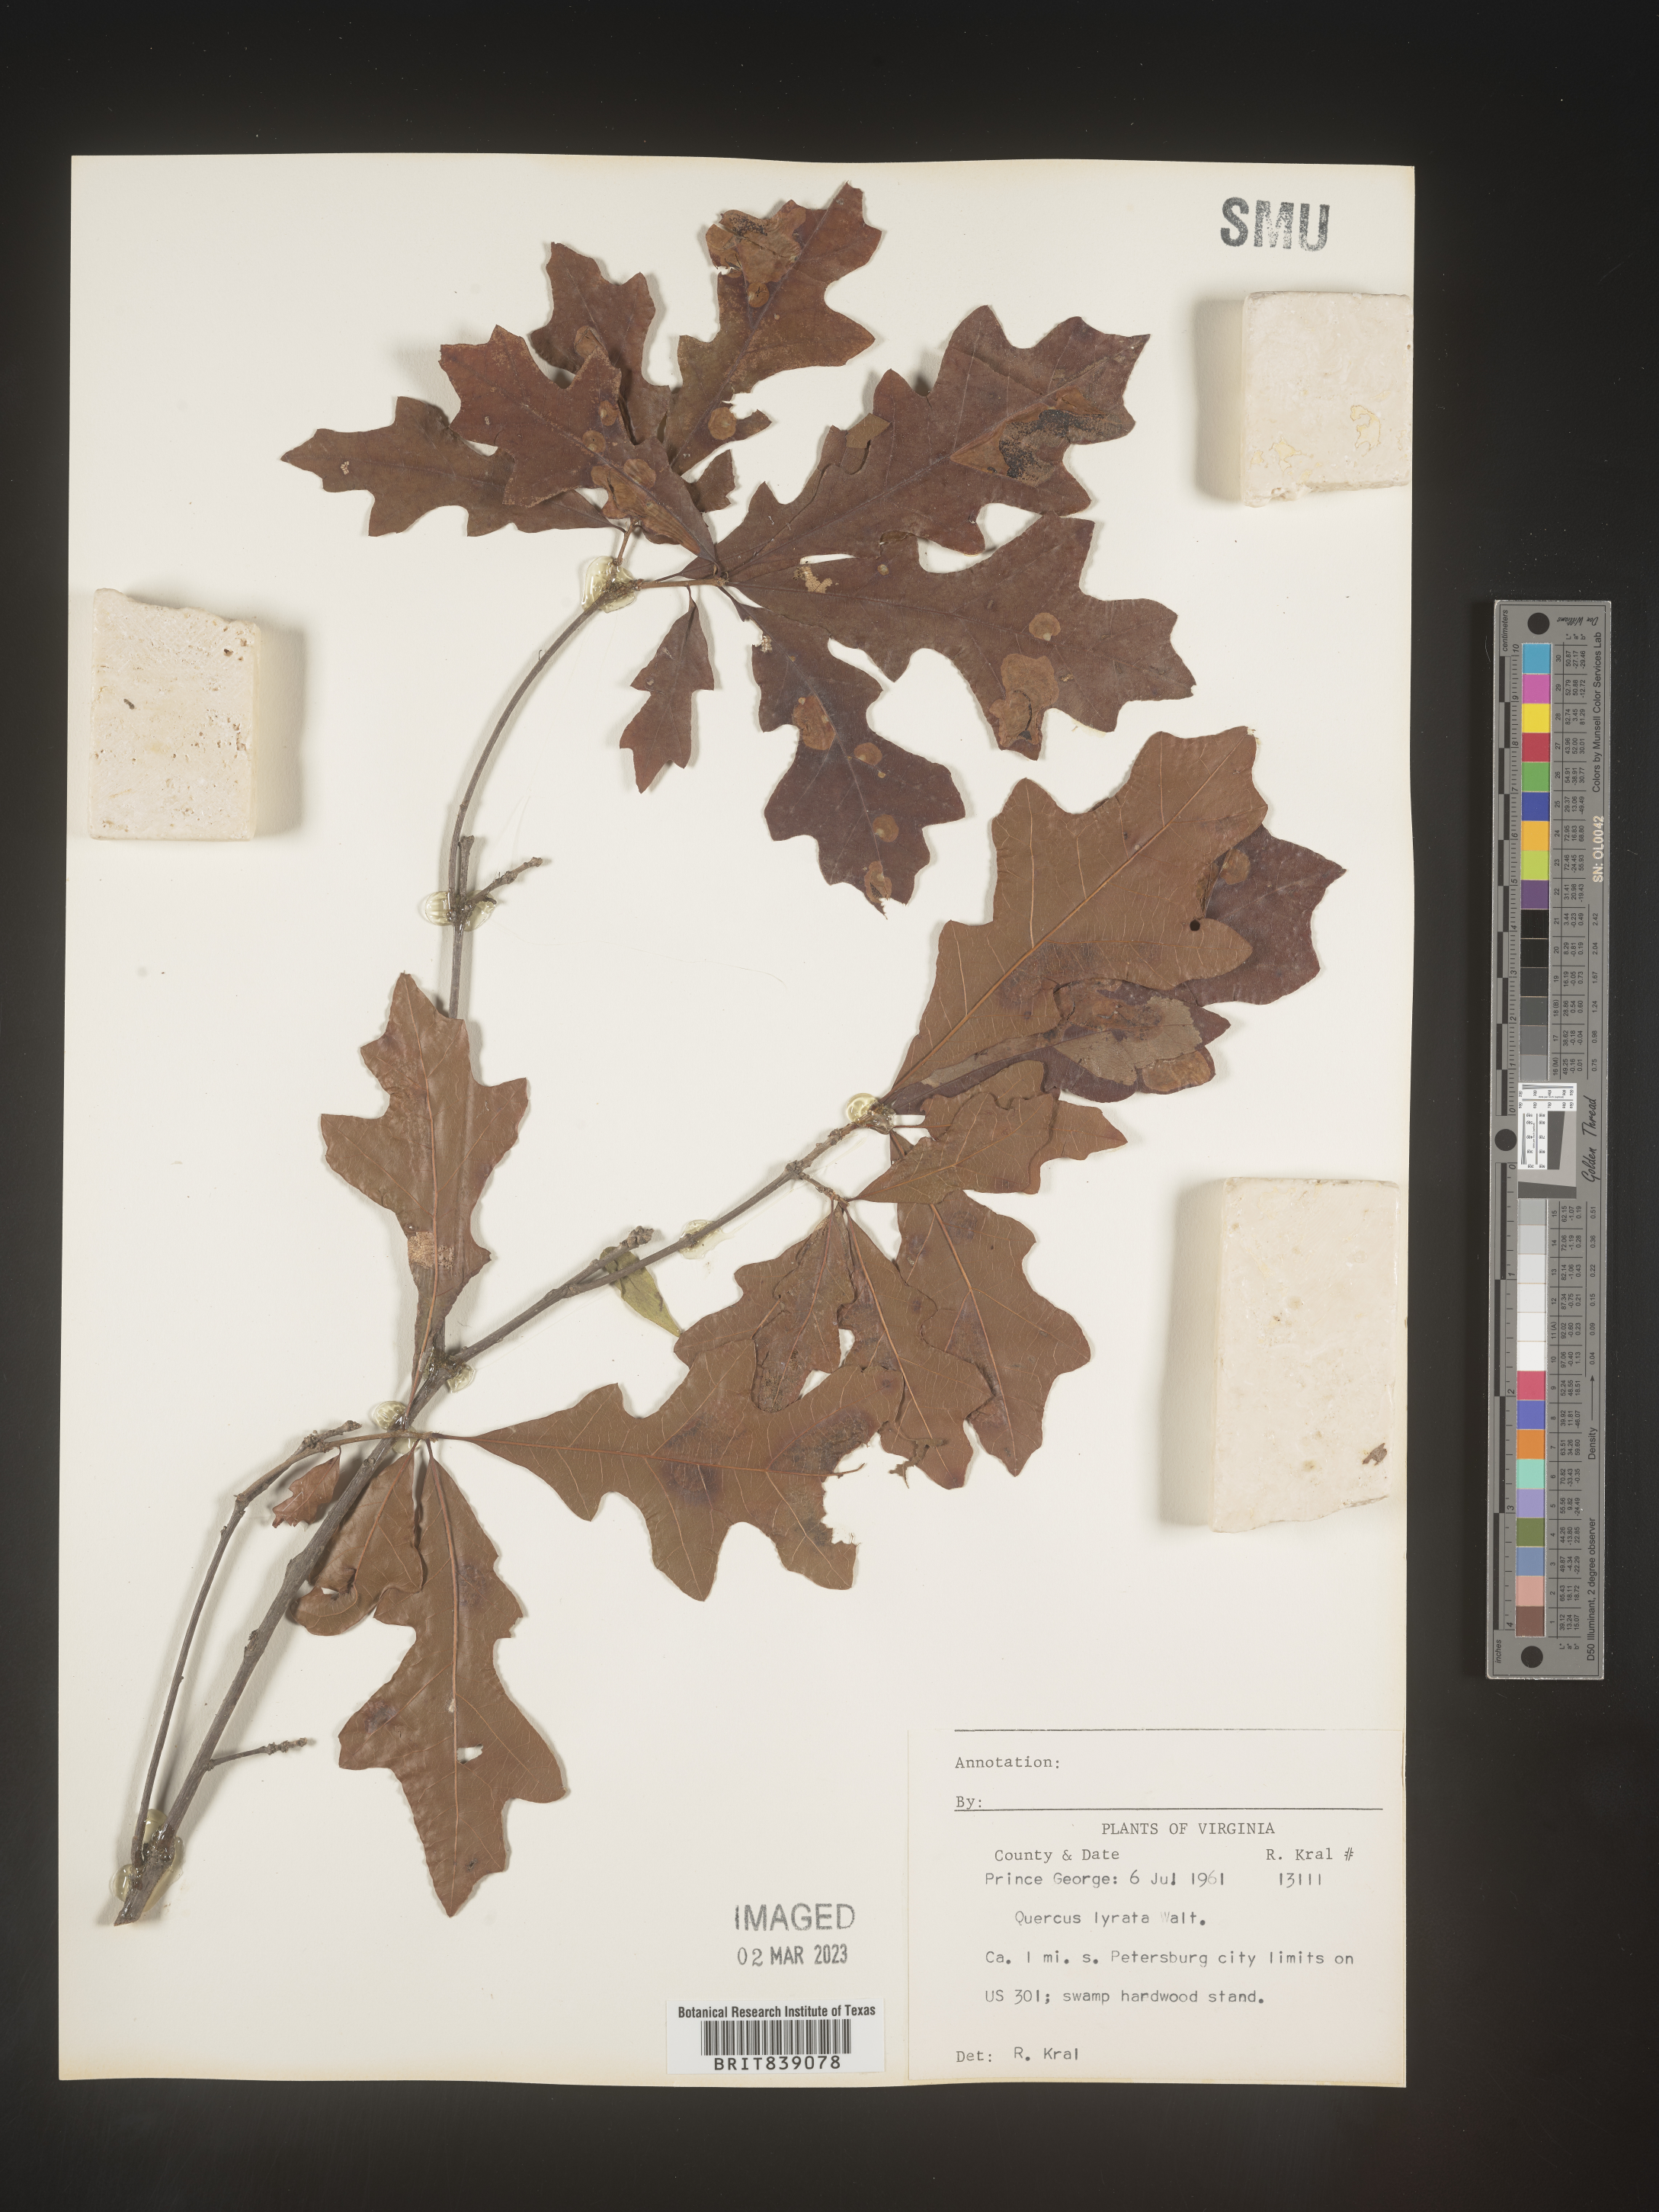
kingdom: Plantae
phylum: Tracheophyta
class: Magnoliopsida
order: Fagales
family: Fagaceae
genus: Quercus
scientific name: Quercus lyrata
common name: Overcup oak
